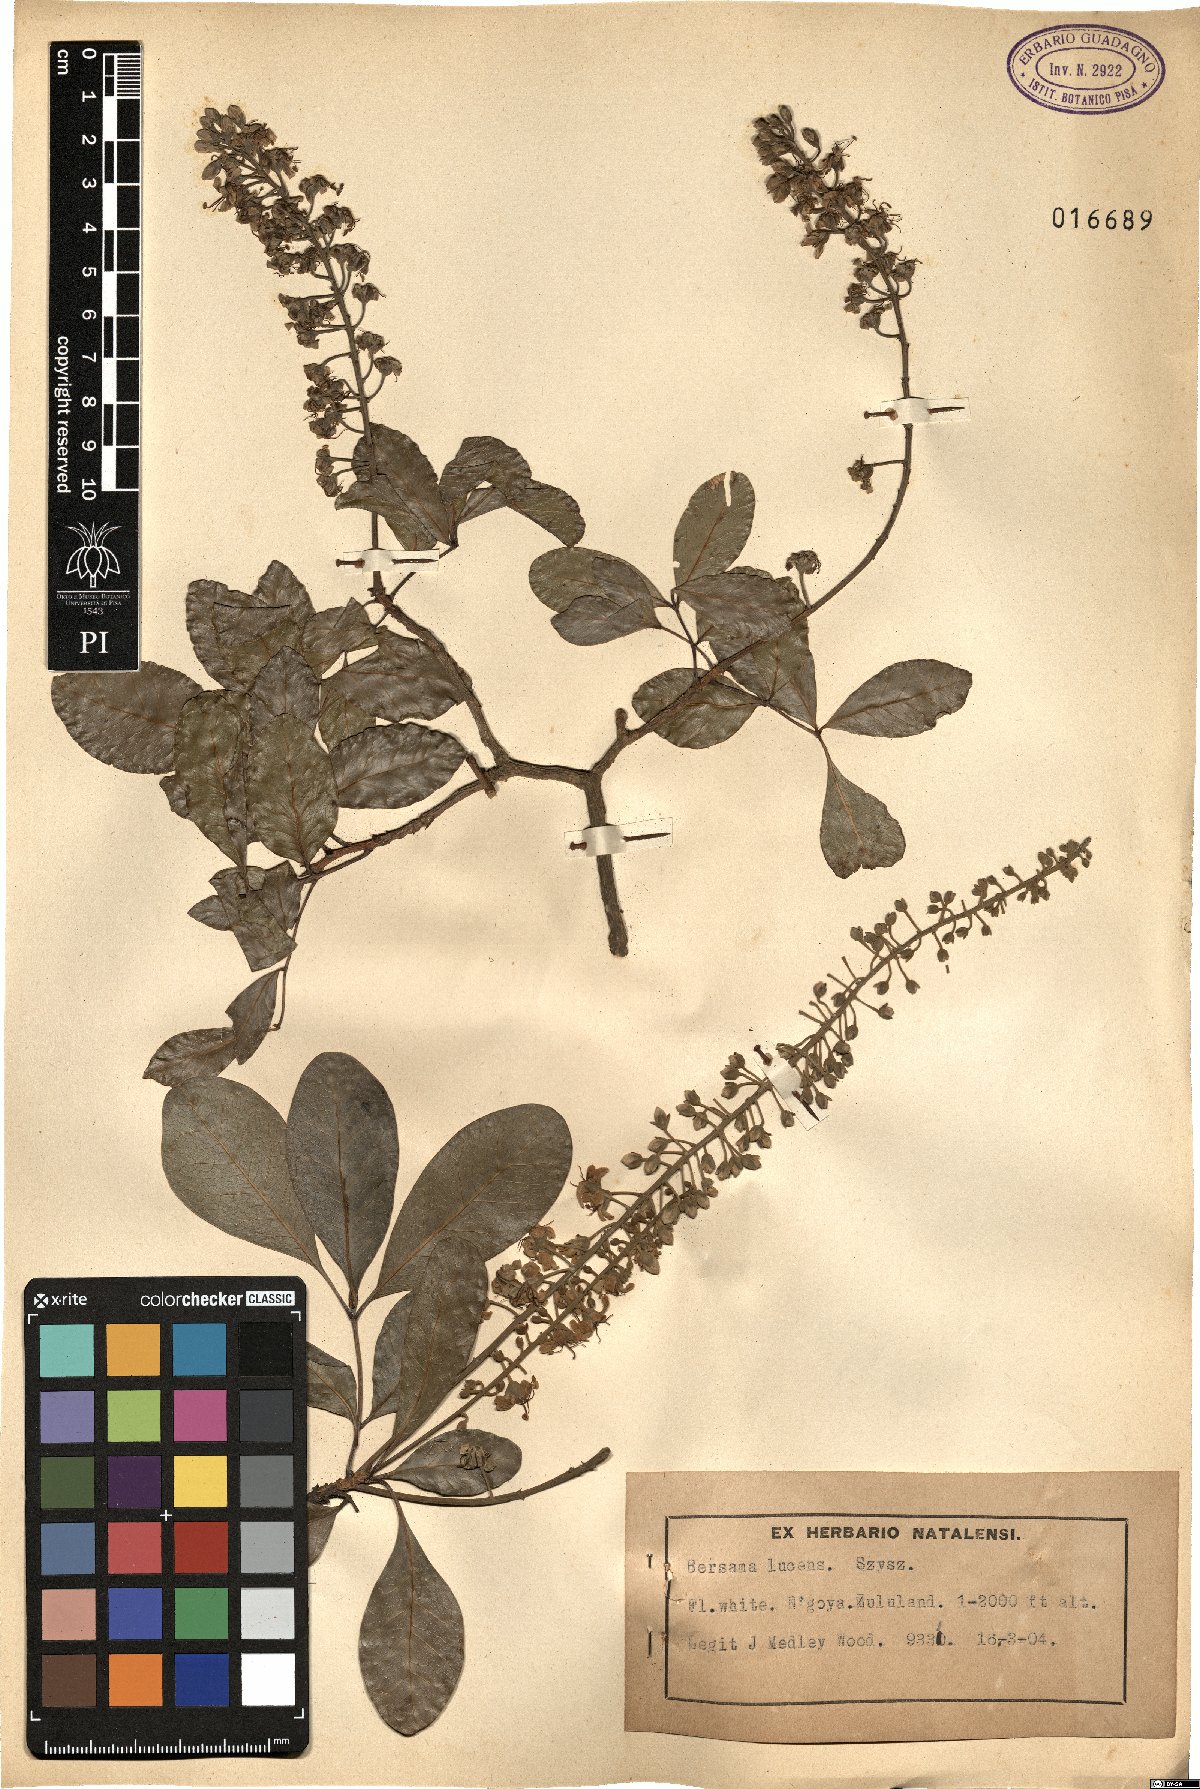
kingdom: Plantae
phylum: Tracheophyta
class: Magnoliopsida
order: Geraniales
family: Melianthaceae
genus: Bersama
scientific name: Bersama lucens
